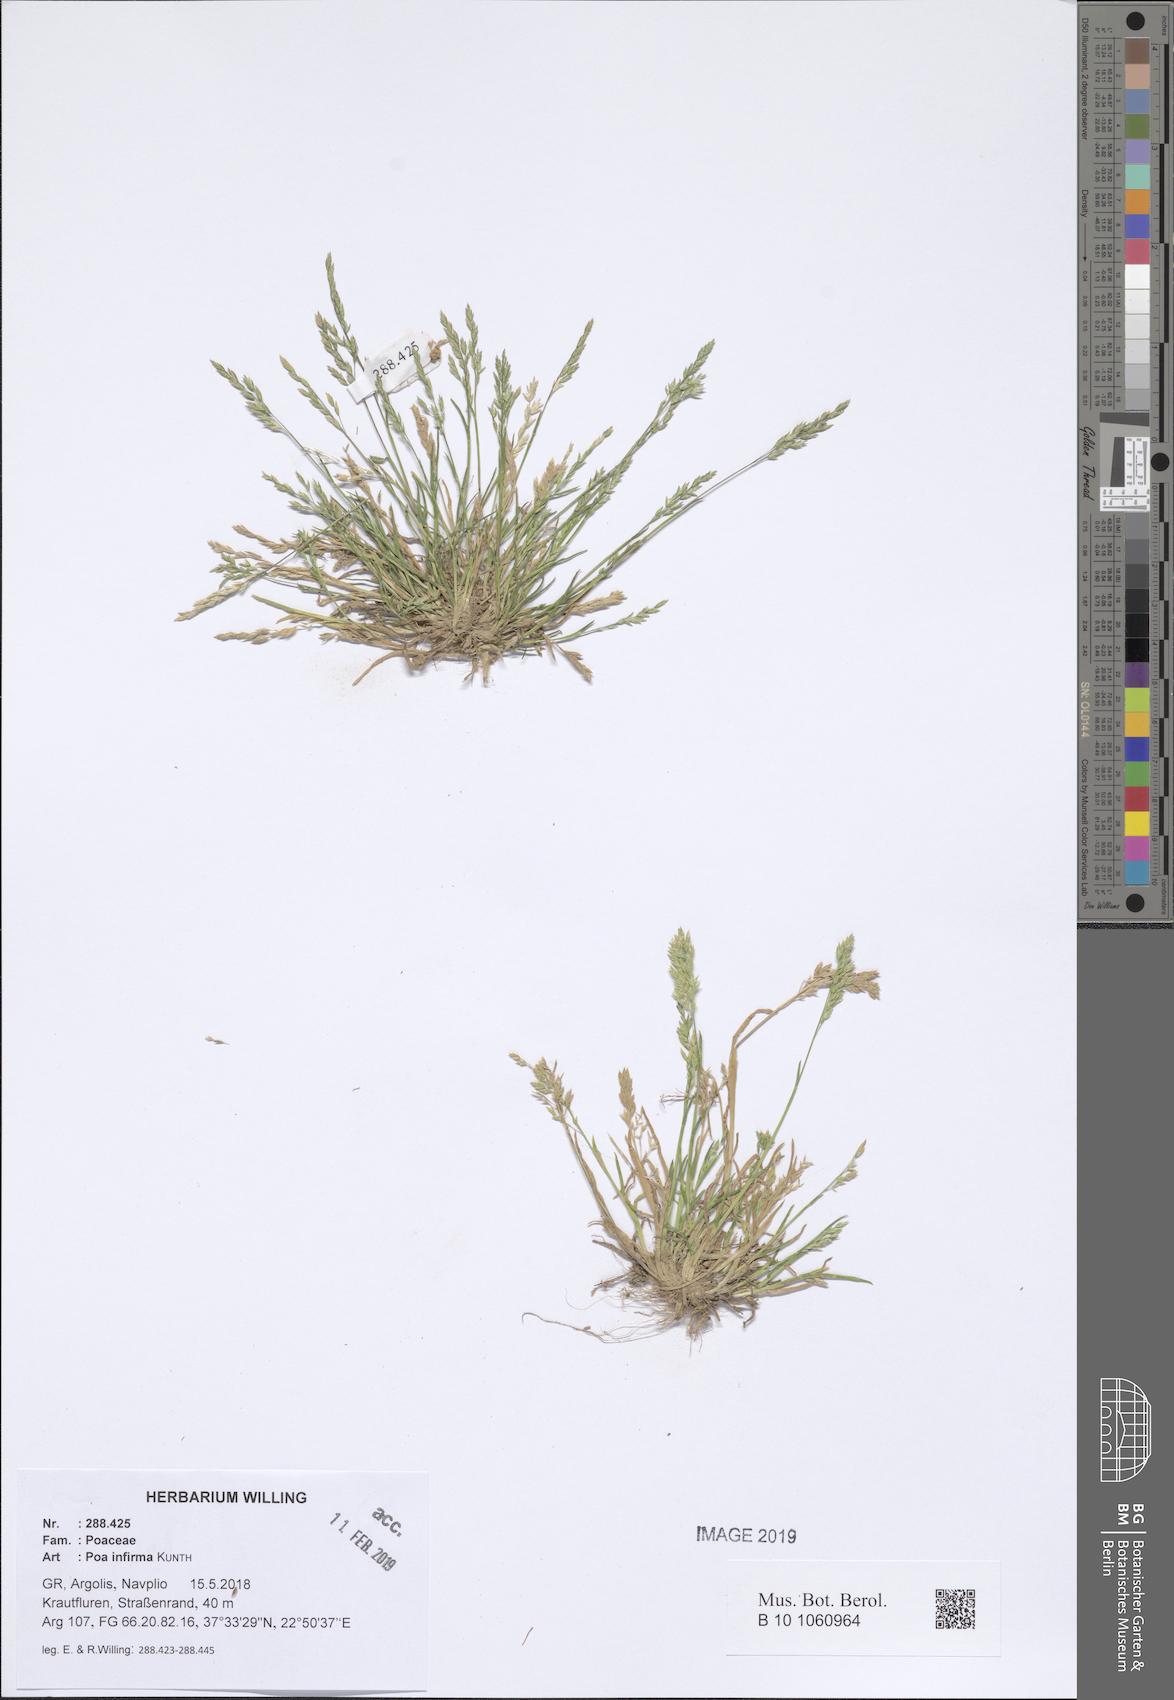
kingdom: Plantae
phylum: Tracheophyta
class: Liliopsida
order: Poales
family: Poaceae
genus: Poa
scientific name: Poa infirma
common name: Weak bluegrass
